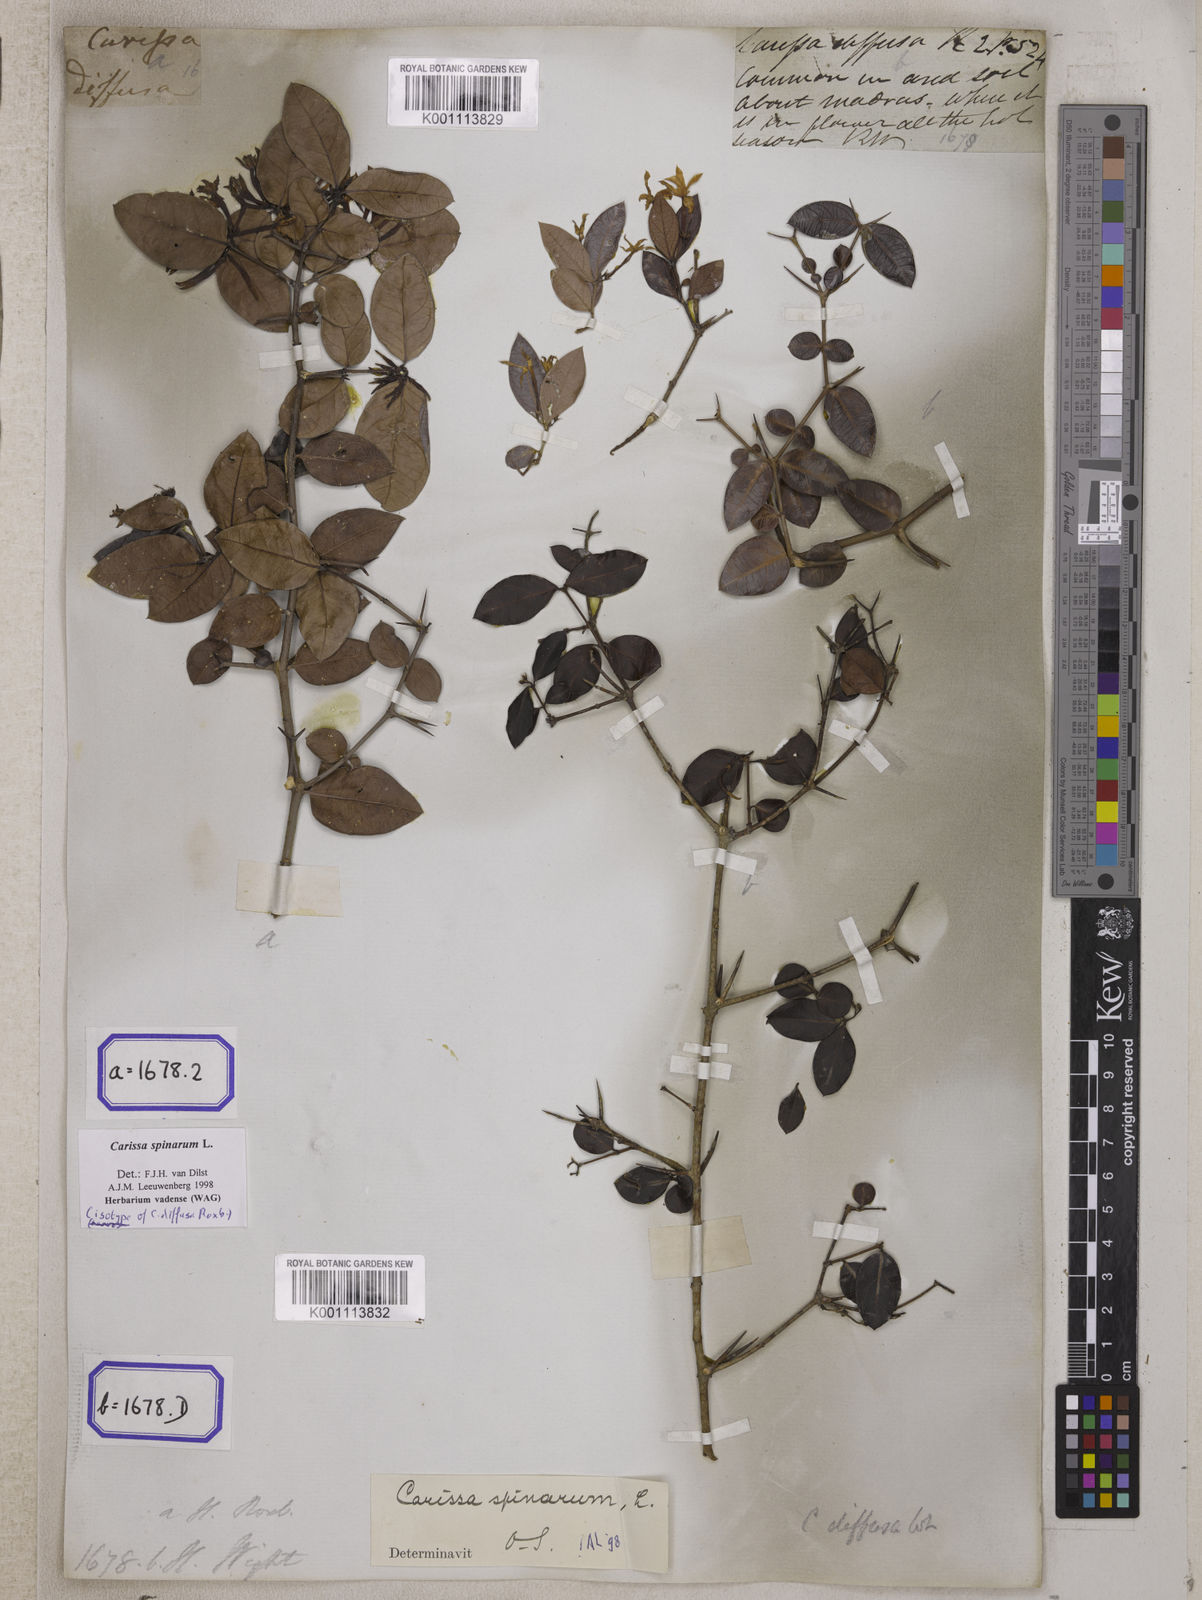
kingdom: Plantae
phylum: Tracheophyta
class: Magnoliopsida
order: Gentianales
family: Apocynaceae
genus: Carissa
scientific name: Carissa spinarum
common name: Egyptian carissa
